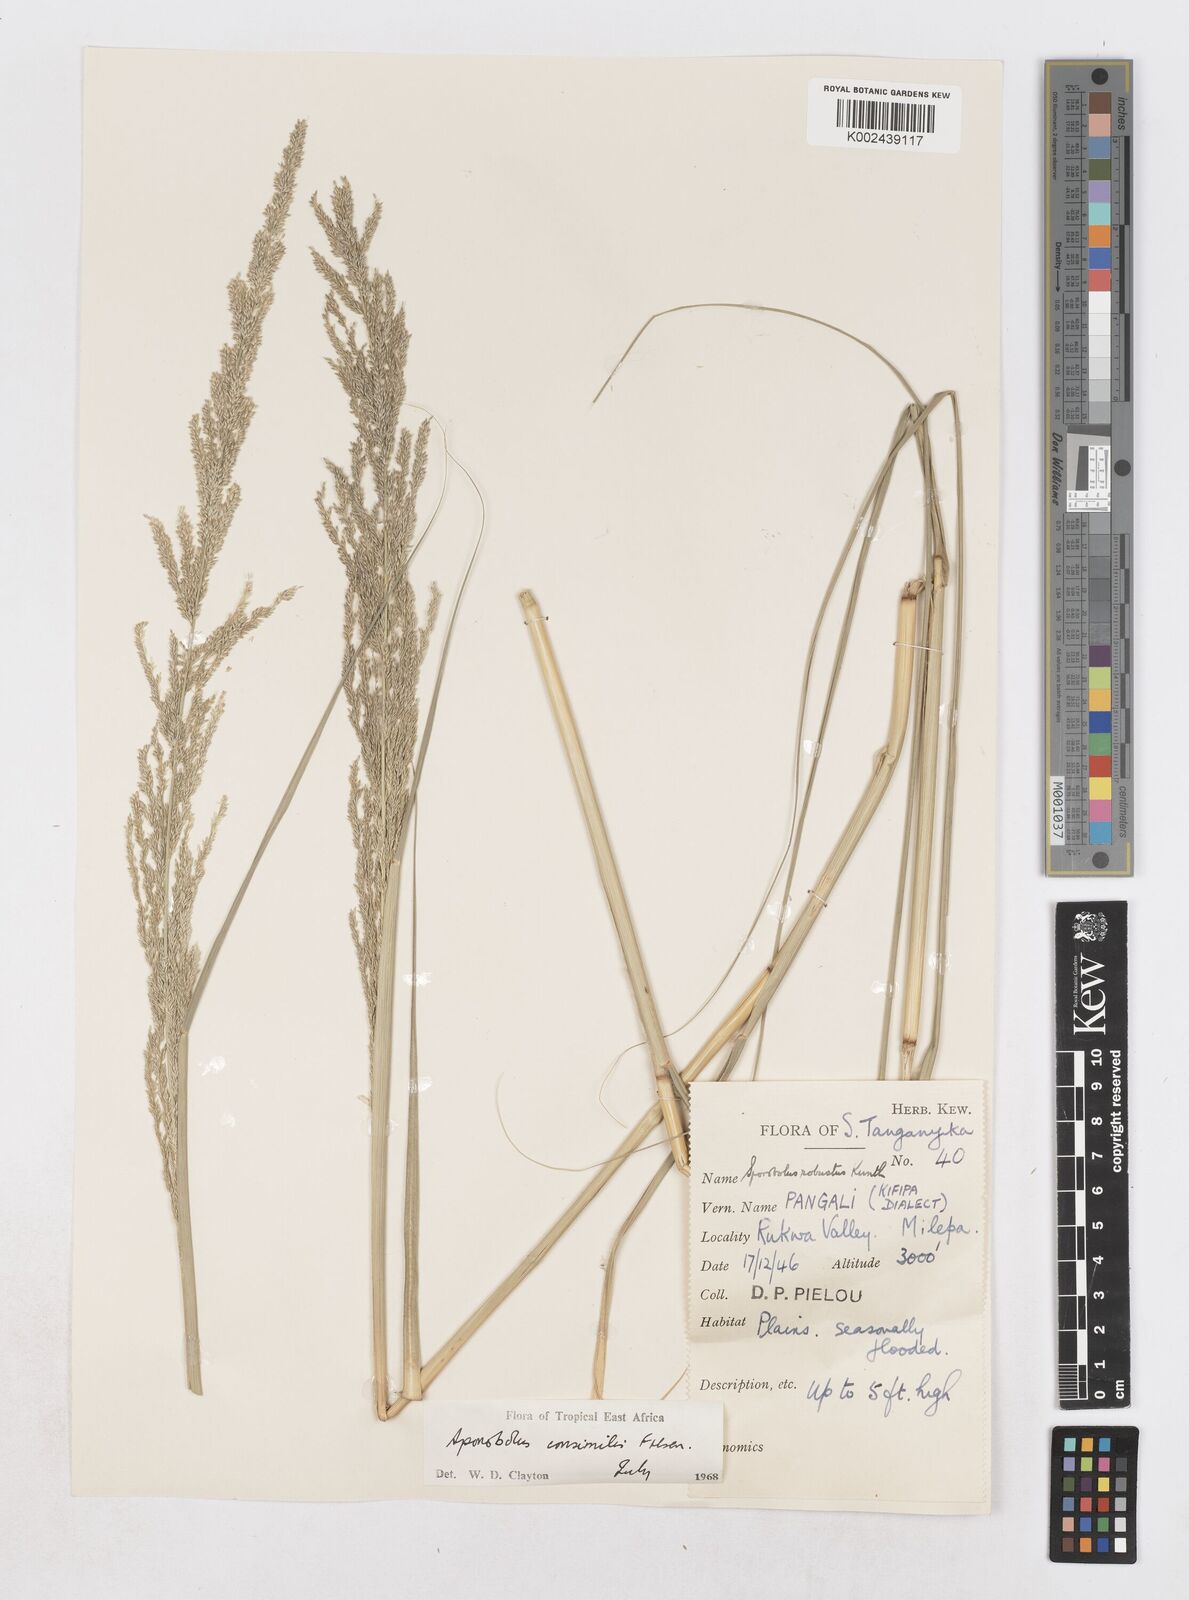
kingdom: Plantae
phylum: Tracheophyta
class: Liliopsida
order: Poales
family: Poaceae
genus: Sporobolus
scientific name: Sporobolus consimilis
